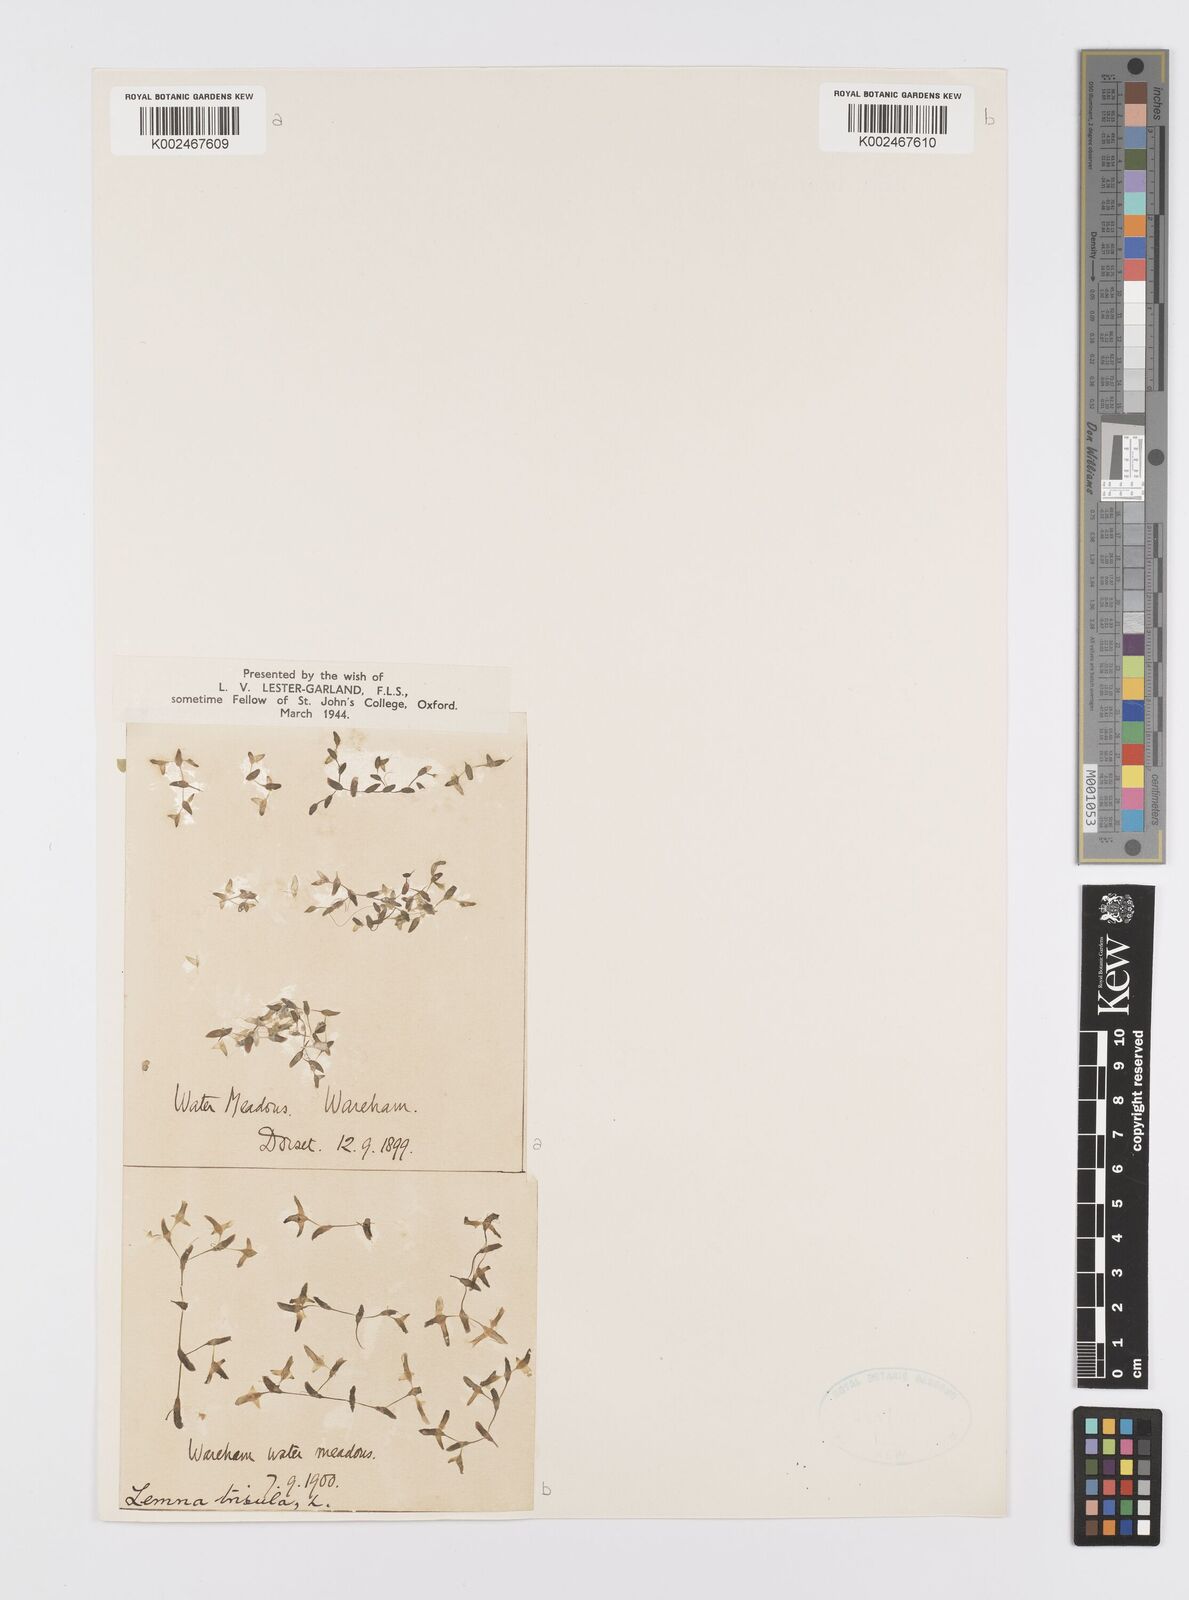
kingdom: Plantae
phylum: Tracheophyta
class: Liliopsida
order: Alismatales
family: Araceae
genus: Lemna
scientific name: Lemna trisulca
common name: Ivy-leaved duckweed
